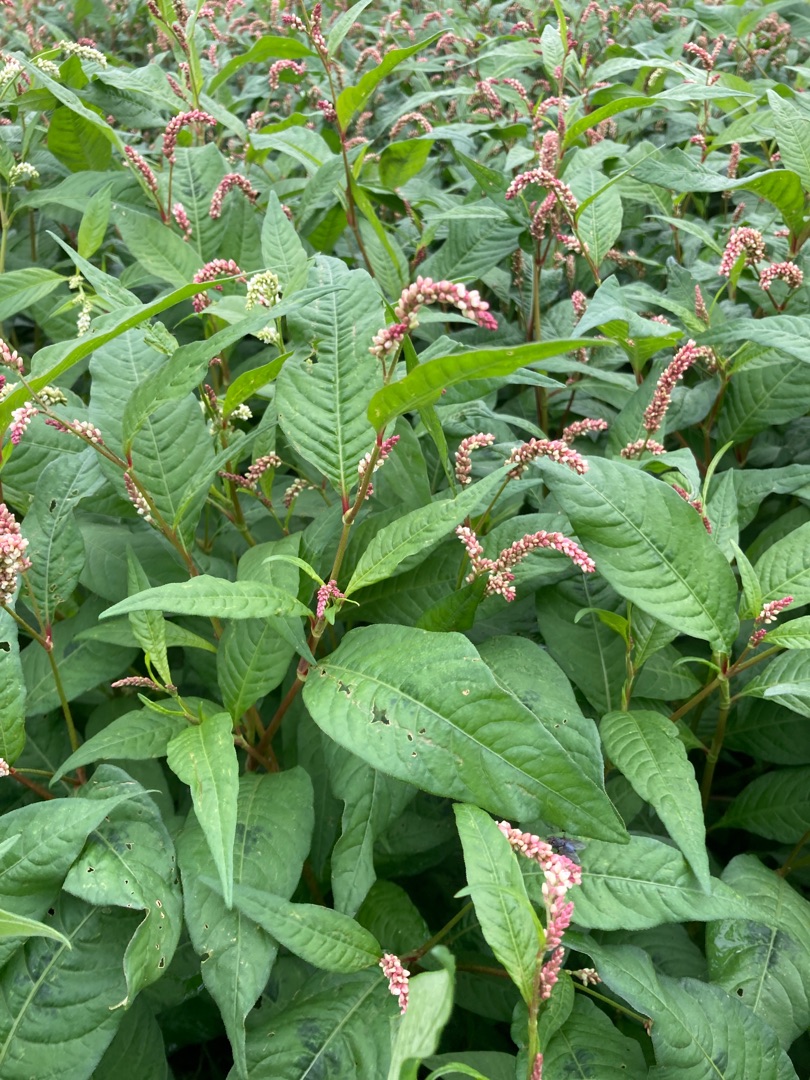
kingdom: Plantae
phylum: Tracheophyta
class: Magnoliopsida
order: Caryophyllales
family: Polygonaceae
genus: Persicaria
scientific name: Persicaria maculosa
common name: Fersken-pileurt
